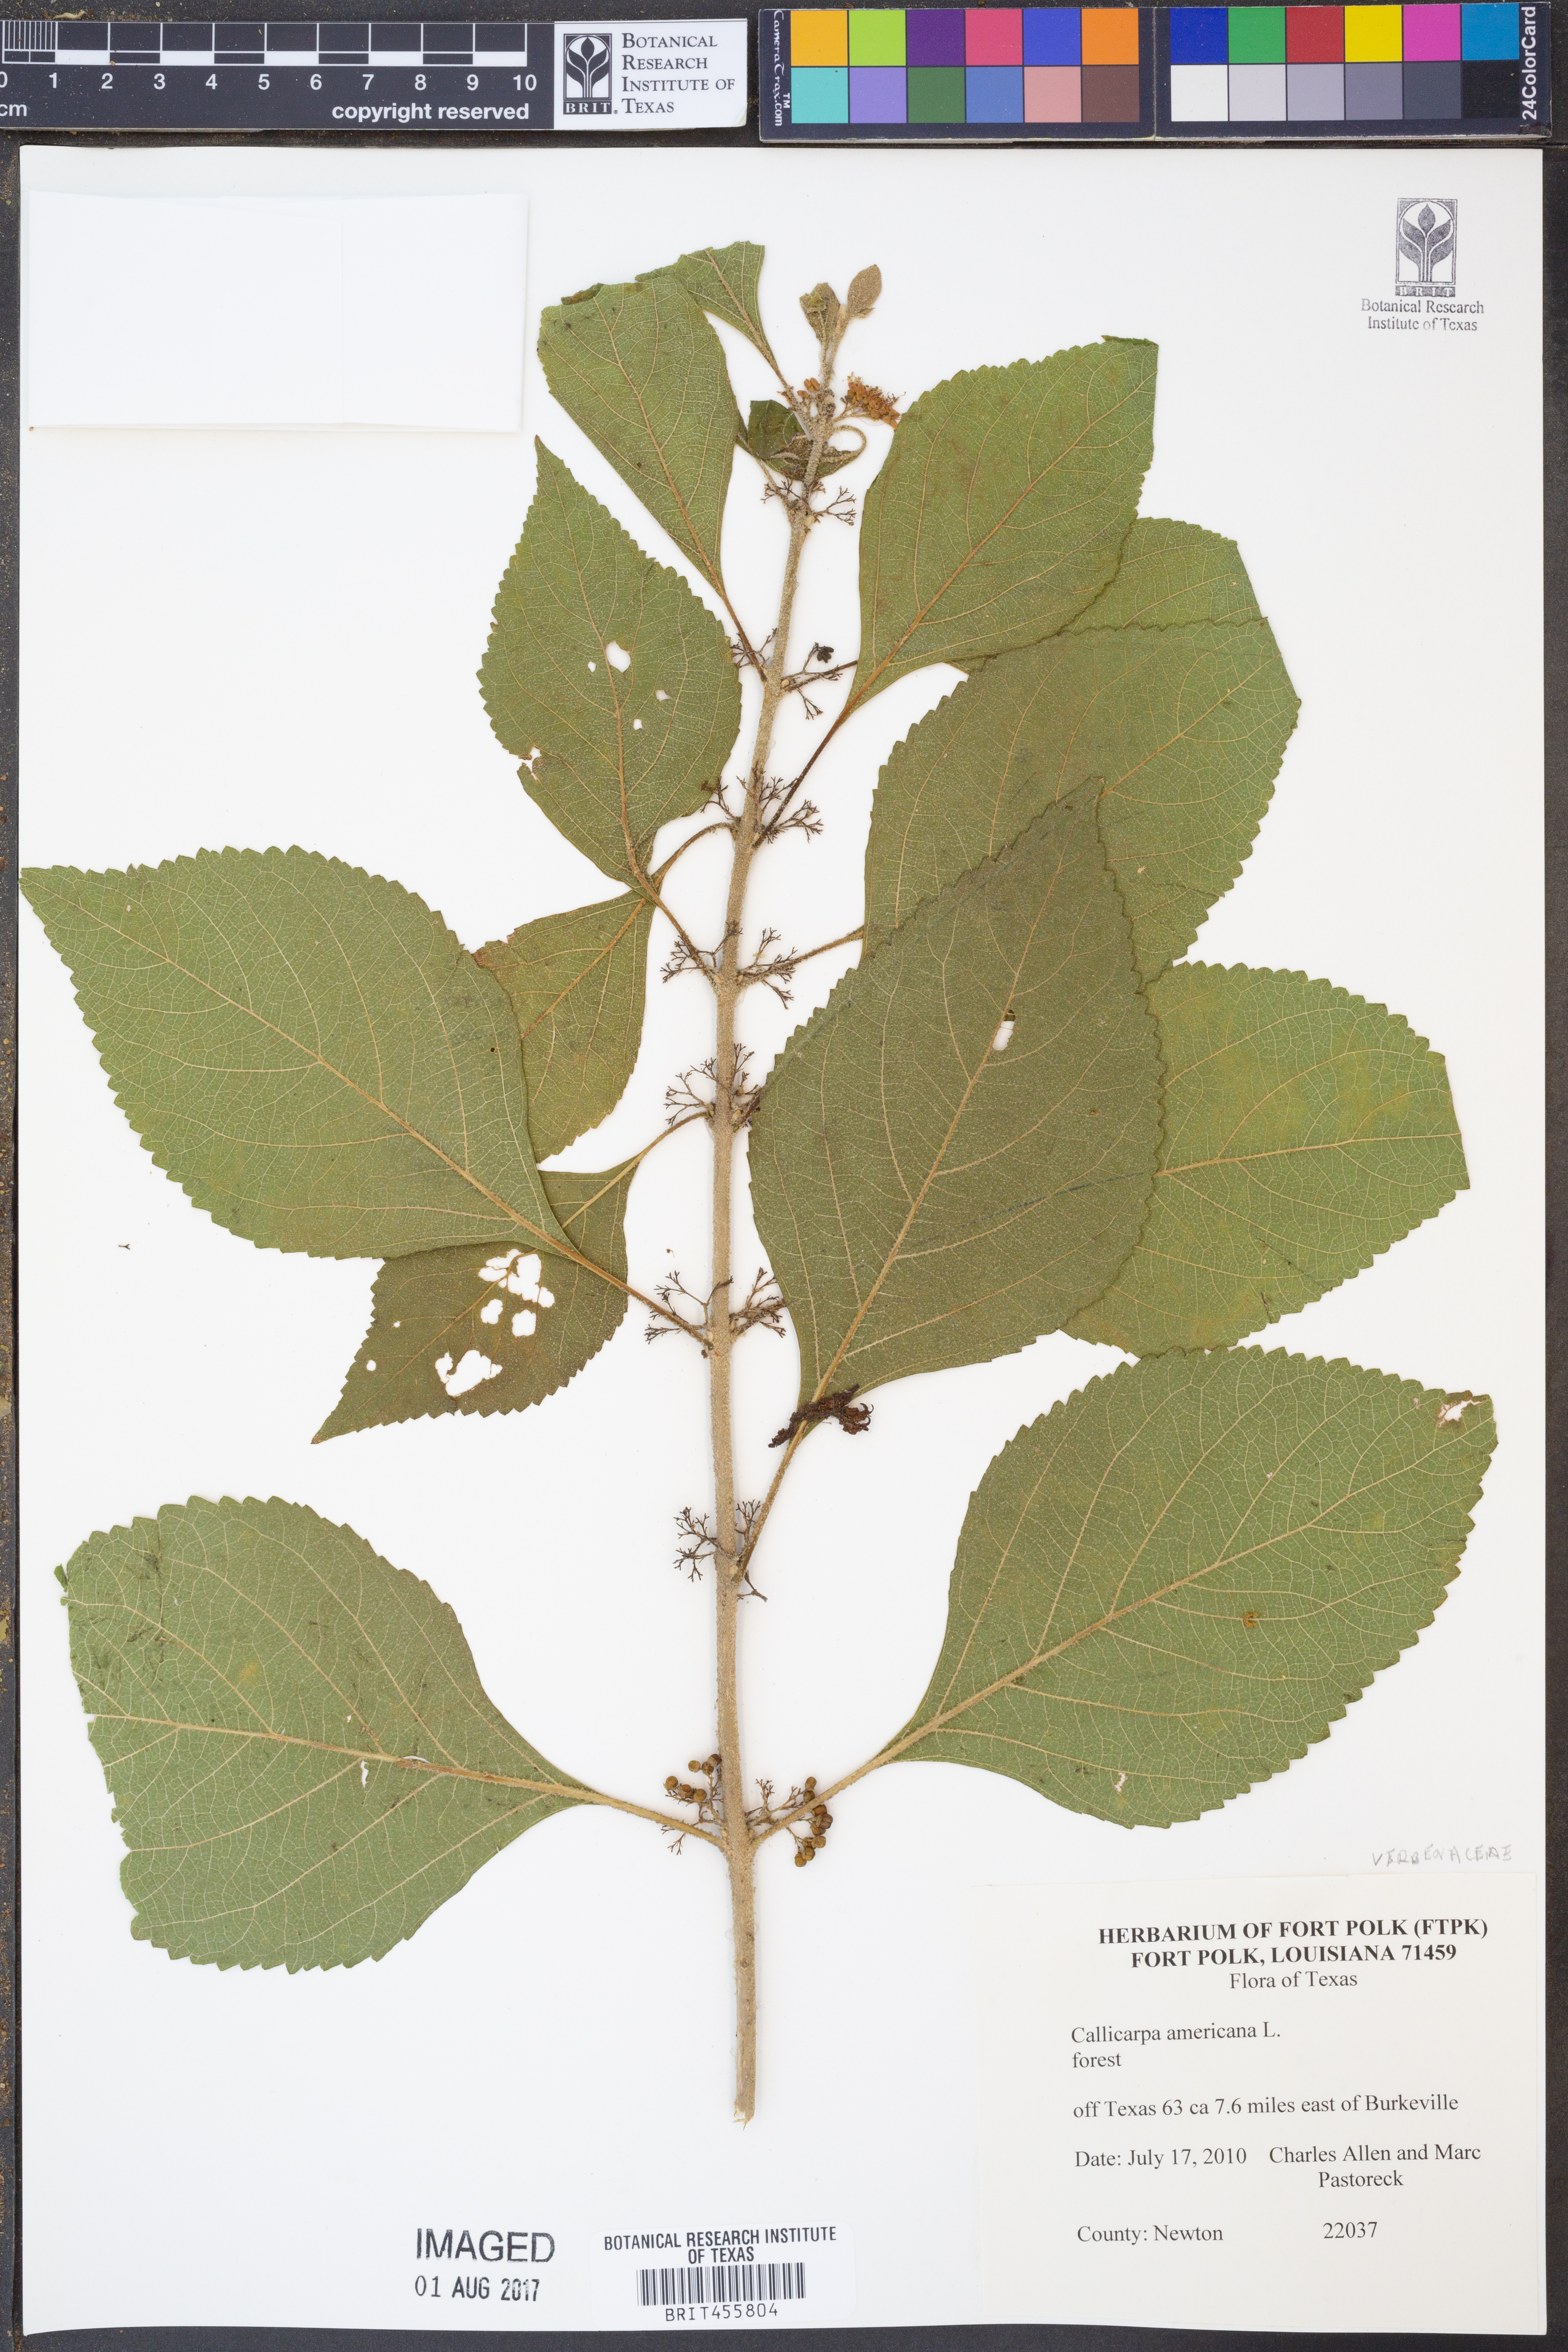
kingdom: Plantae
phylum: Tracheophyta
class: Magnoliopsida
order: Lamiales
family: Lamiaceae
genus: Callicarpa
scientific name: Callicarpa americana
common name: American beautyberry
